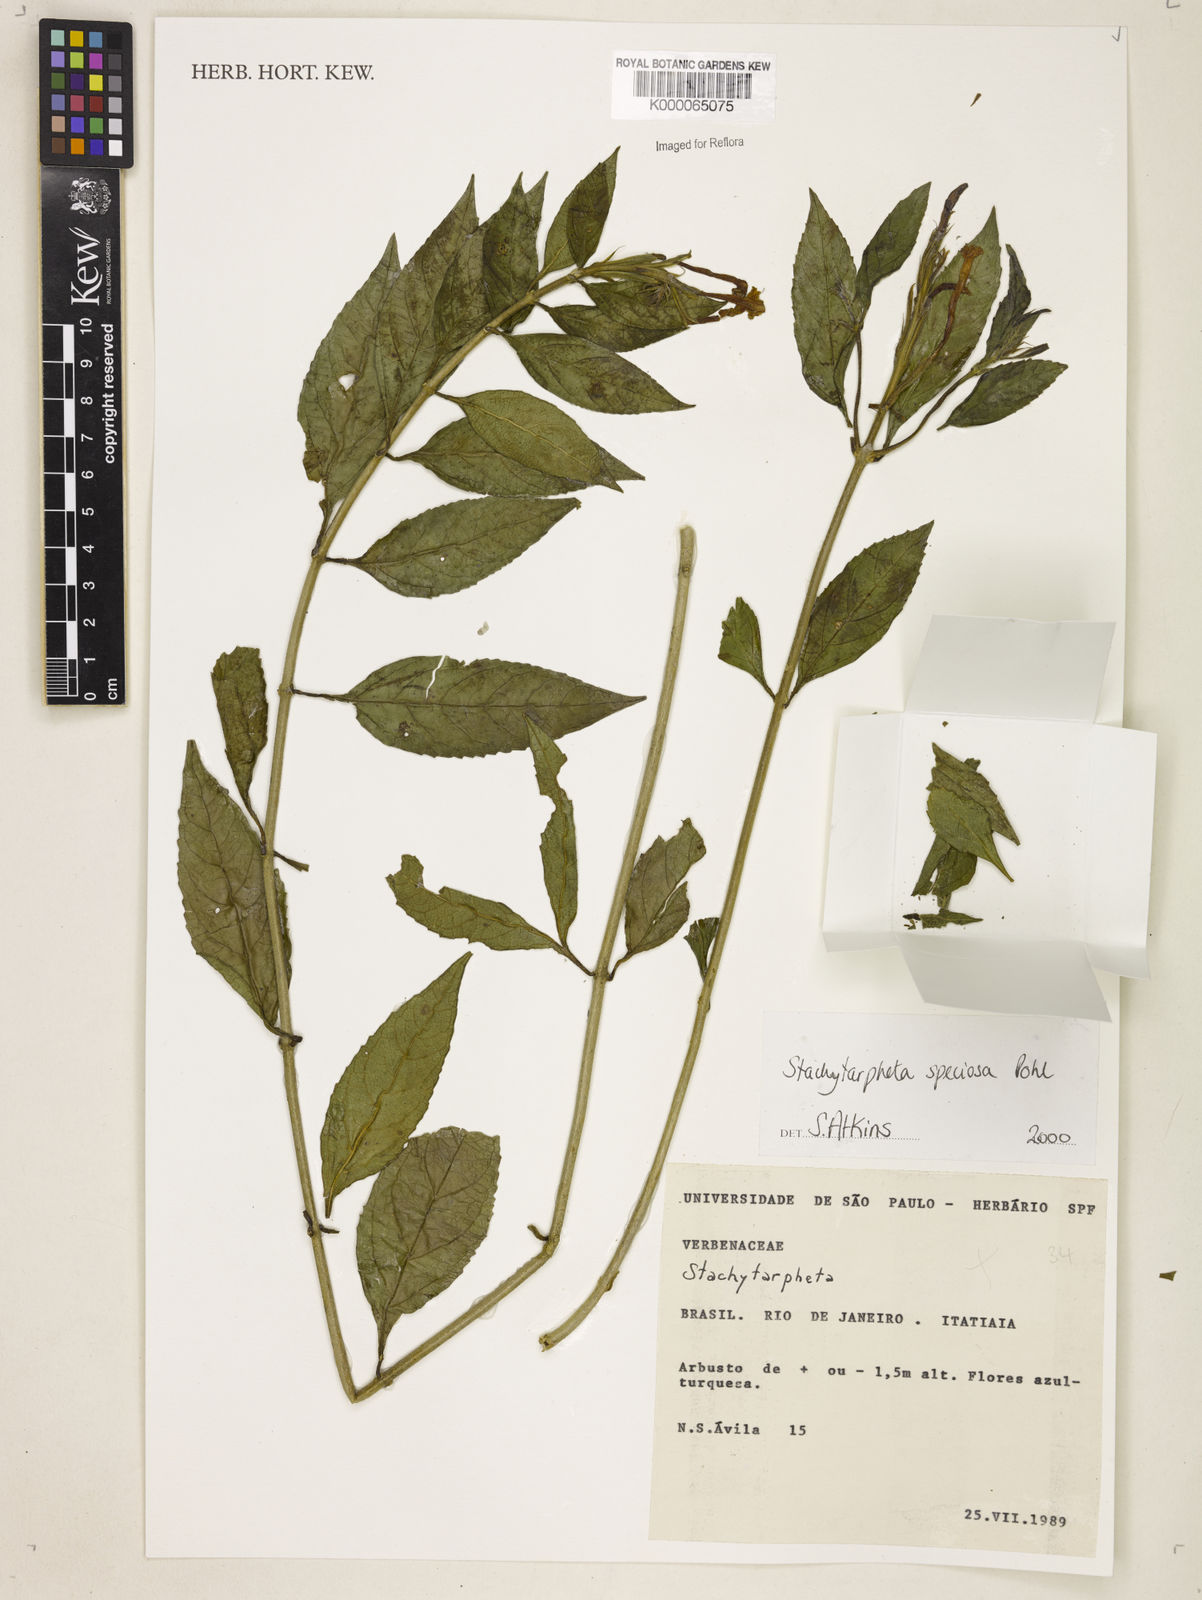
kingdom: Plantae
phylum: Tracheophyta
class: Magnoliopsida
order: Lamiales
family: Verbenaceae
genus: Stachytarpheta
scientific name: Stachytarpheta
